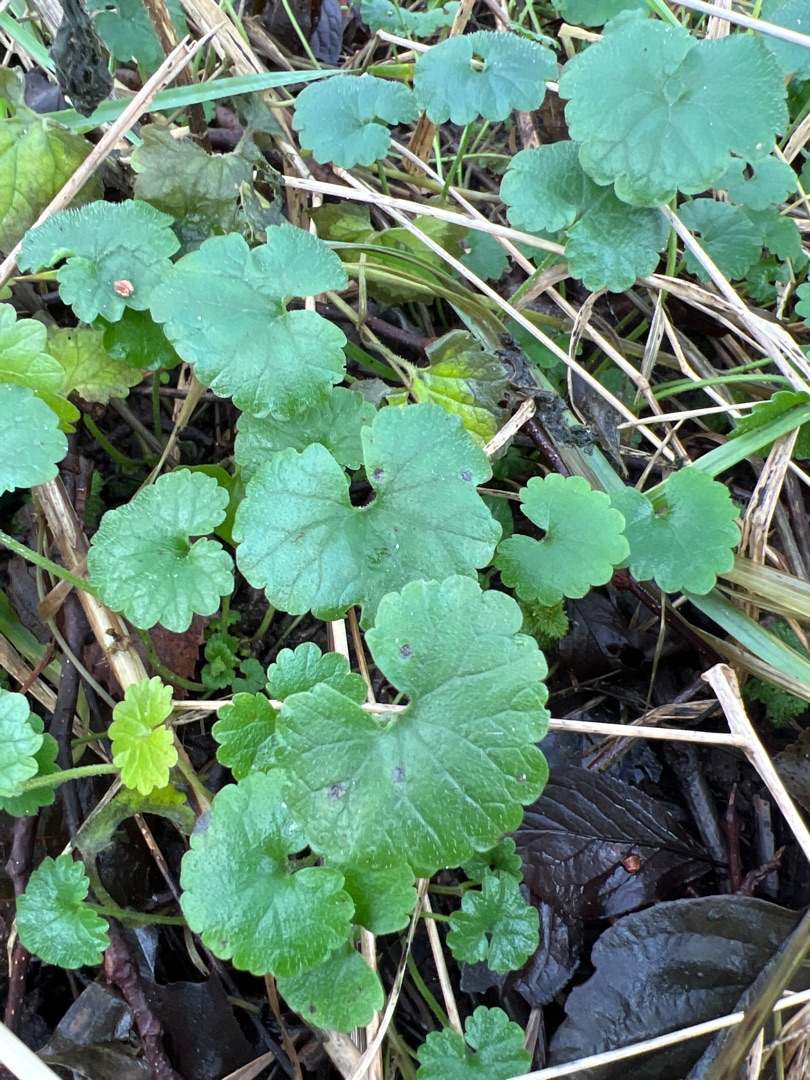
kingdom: Plantae
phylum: Tracheophyta
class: Magnoliopsida
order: Lamiales
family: Lamiaceae
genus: Glechoma
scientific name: Glechoma hederacea
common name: Korsknap
